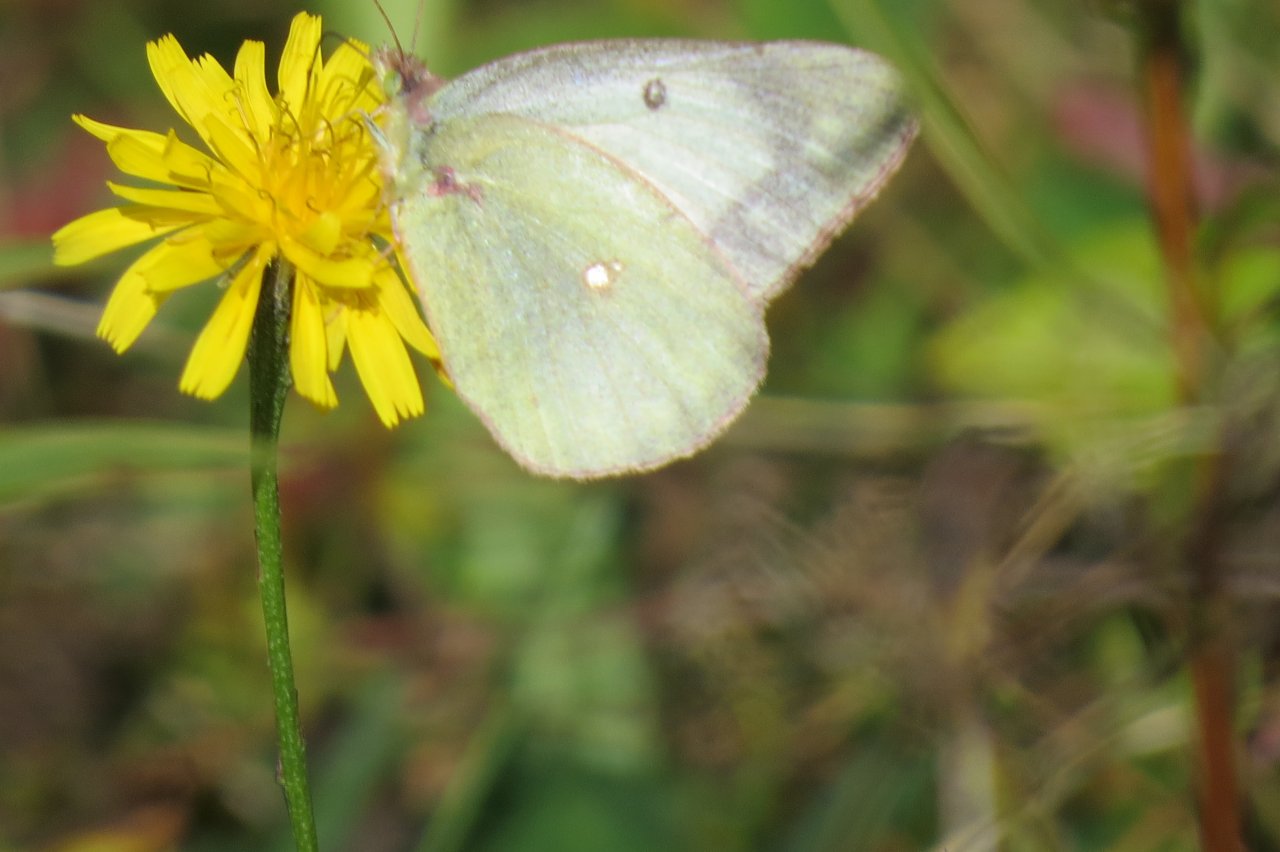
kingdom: Animalia
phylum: Arthropoda
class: Insecta
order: Lepidoptera
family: Pieridae
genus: Colias
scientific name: Colias philodice
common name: Clouded Sulphur
